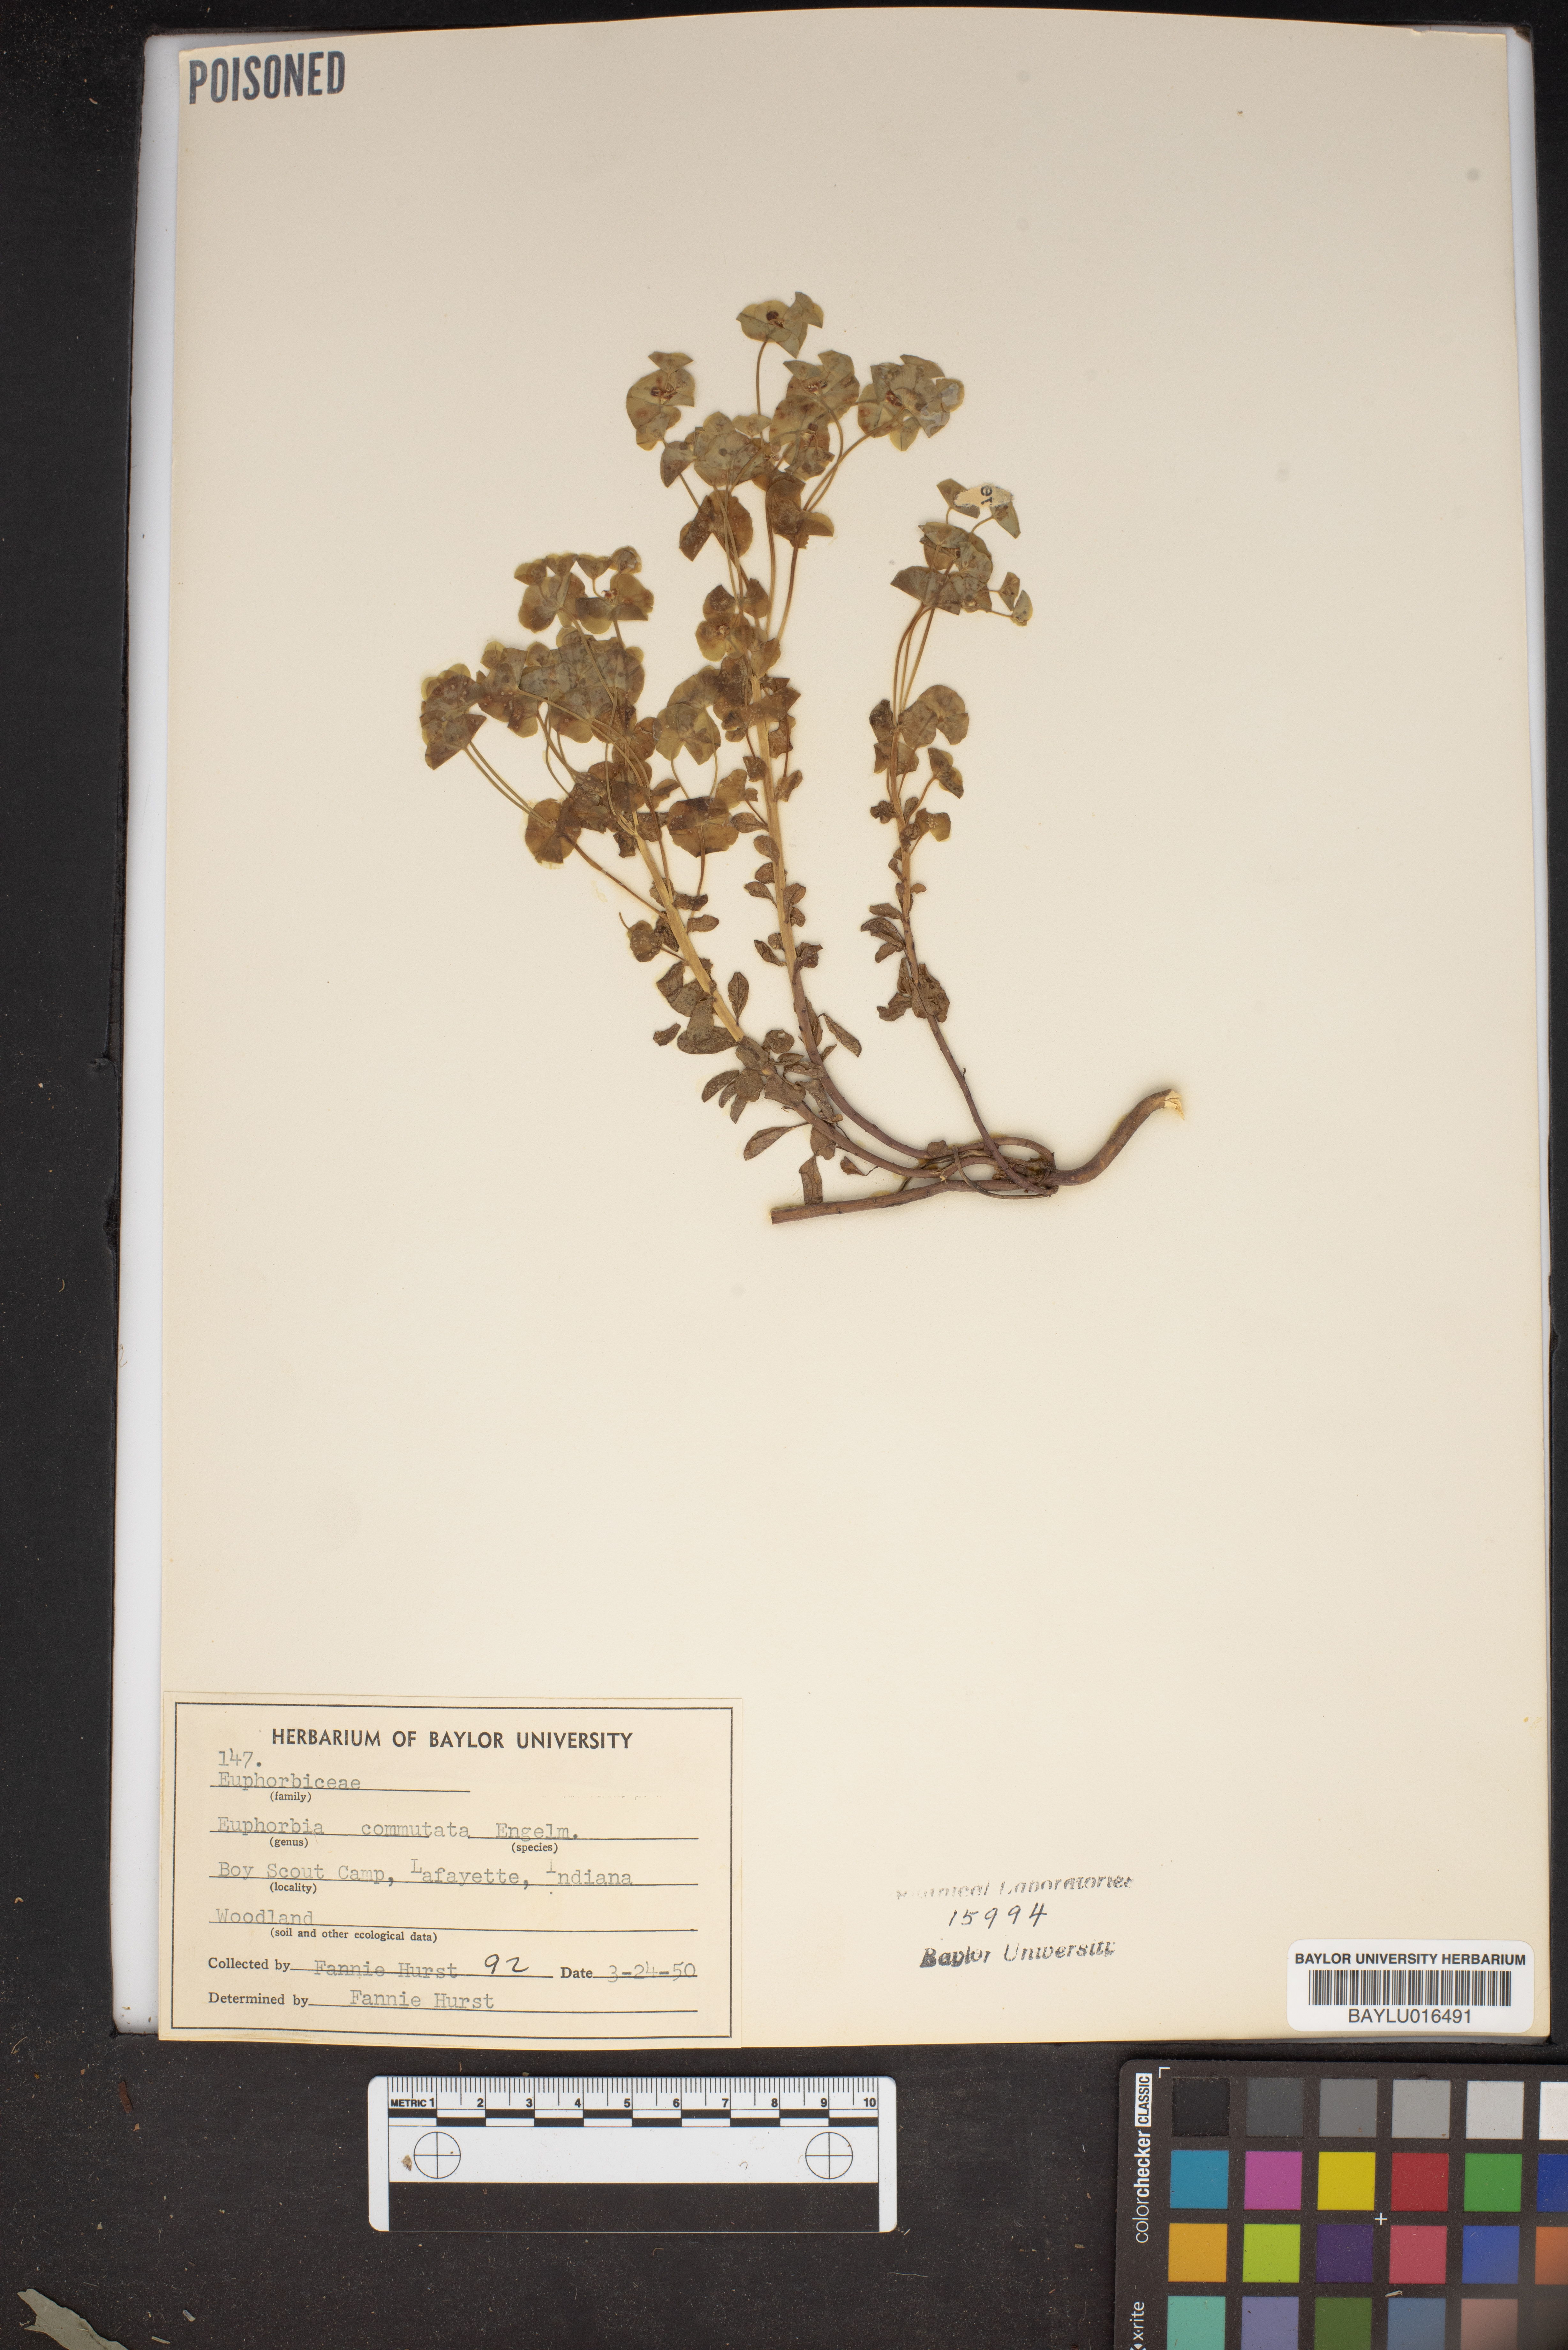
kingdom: Plantae
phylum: Tracheophyta
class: Magnoliopsida
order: Malpighiales
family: Euphorbiaceae
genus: Euphorbia
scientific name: Euphorbia commutata
